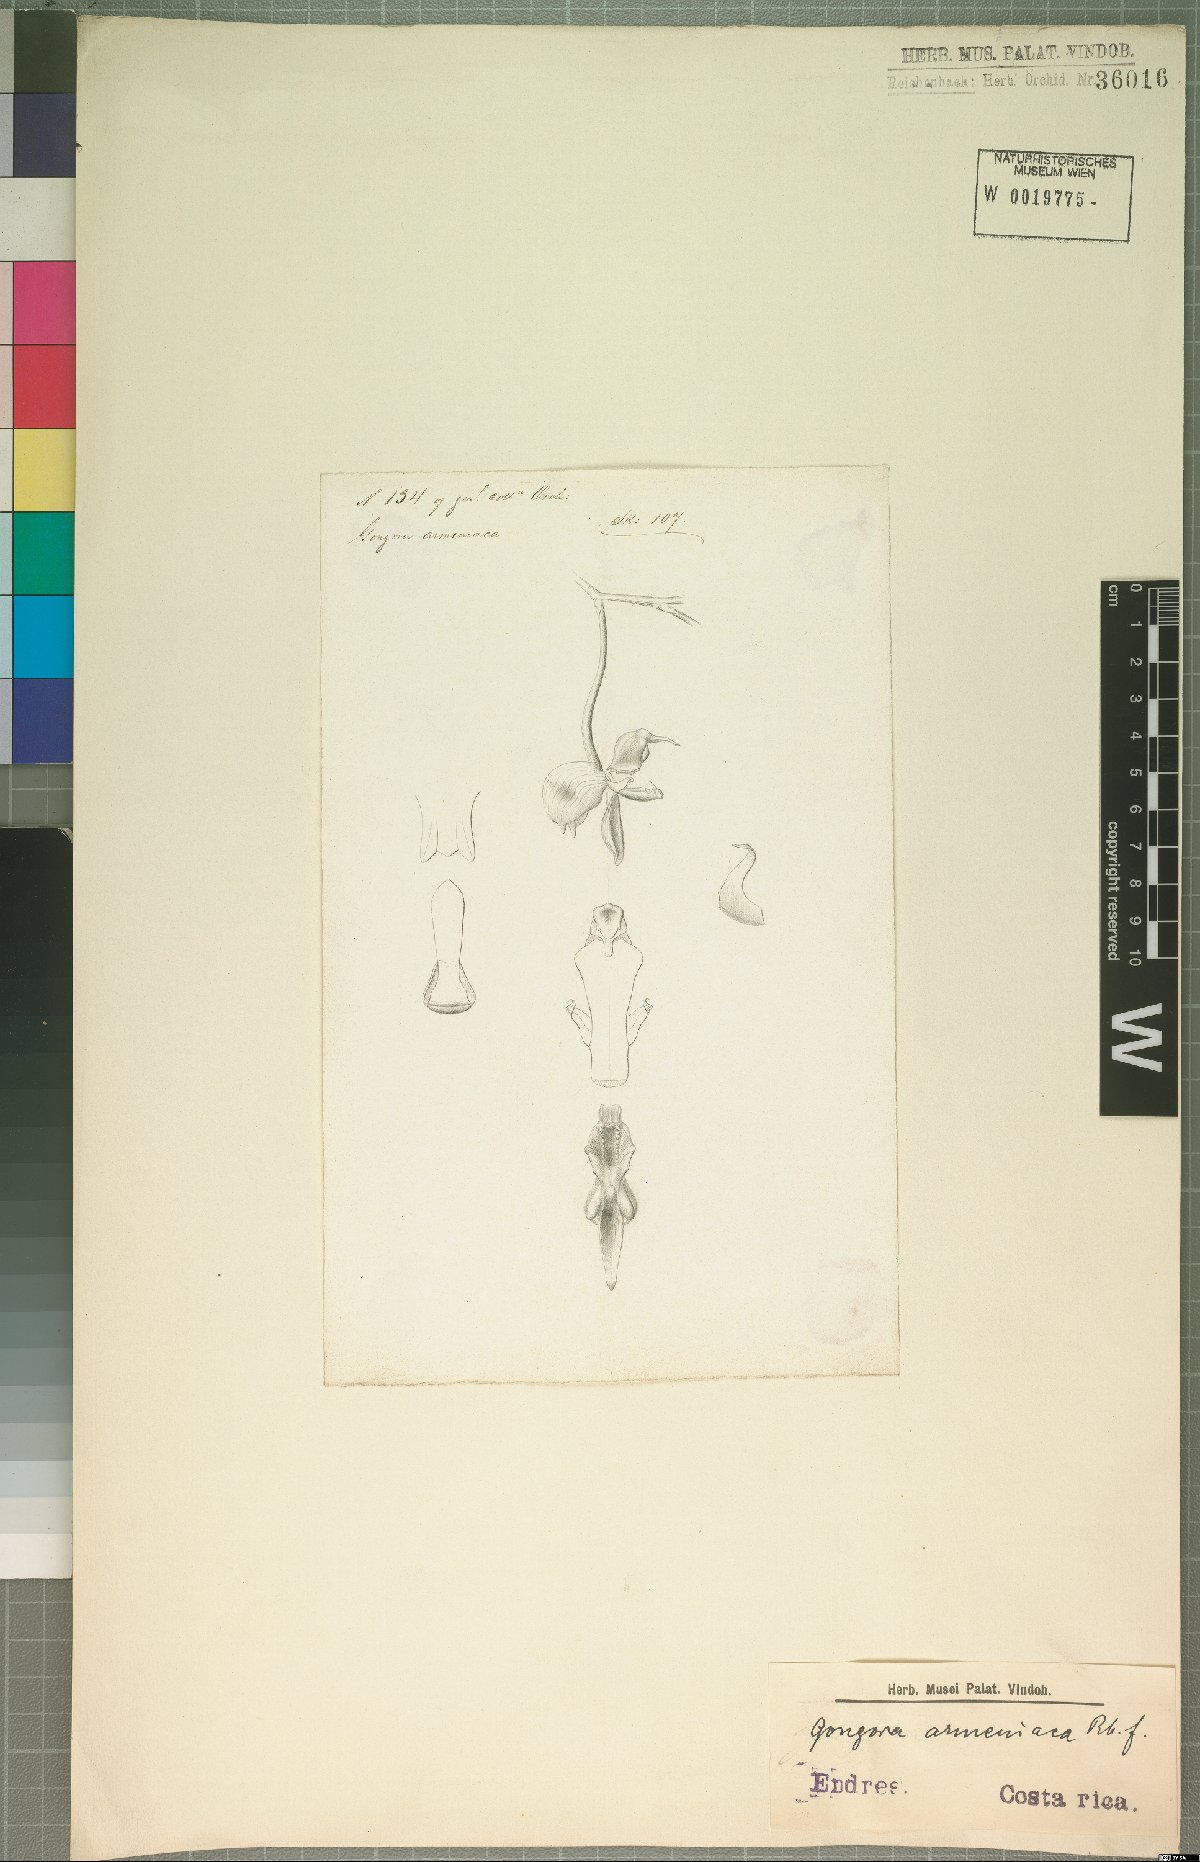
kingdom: Plantae
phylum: Tracheophyta
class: Liliopsida
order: Asparagales
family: Orchidaceae
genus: Gongora
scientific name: Gongora armeniaca
